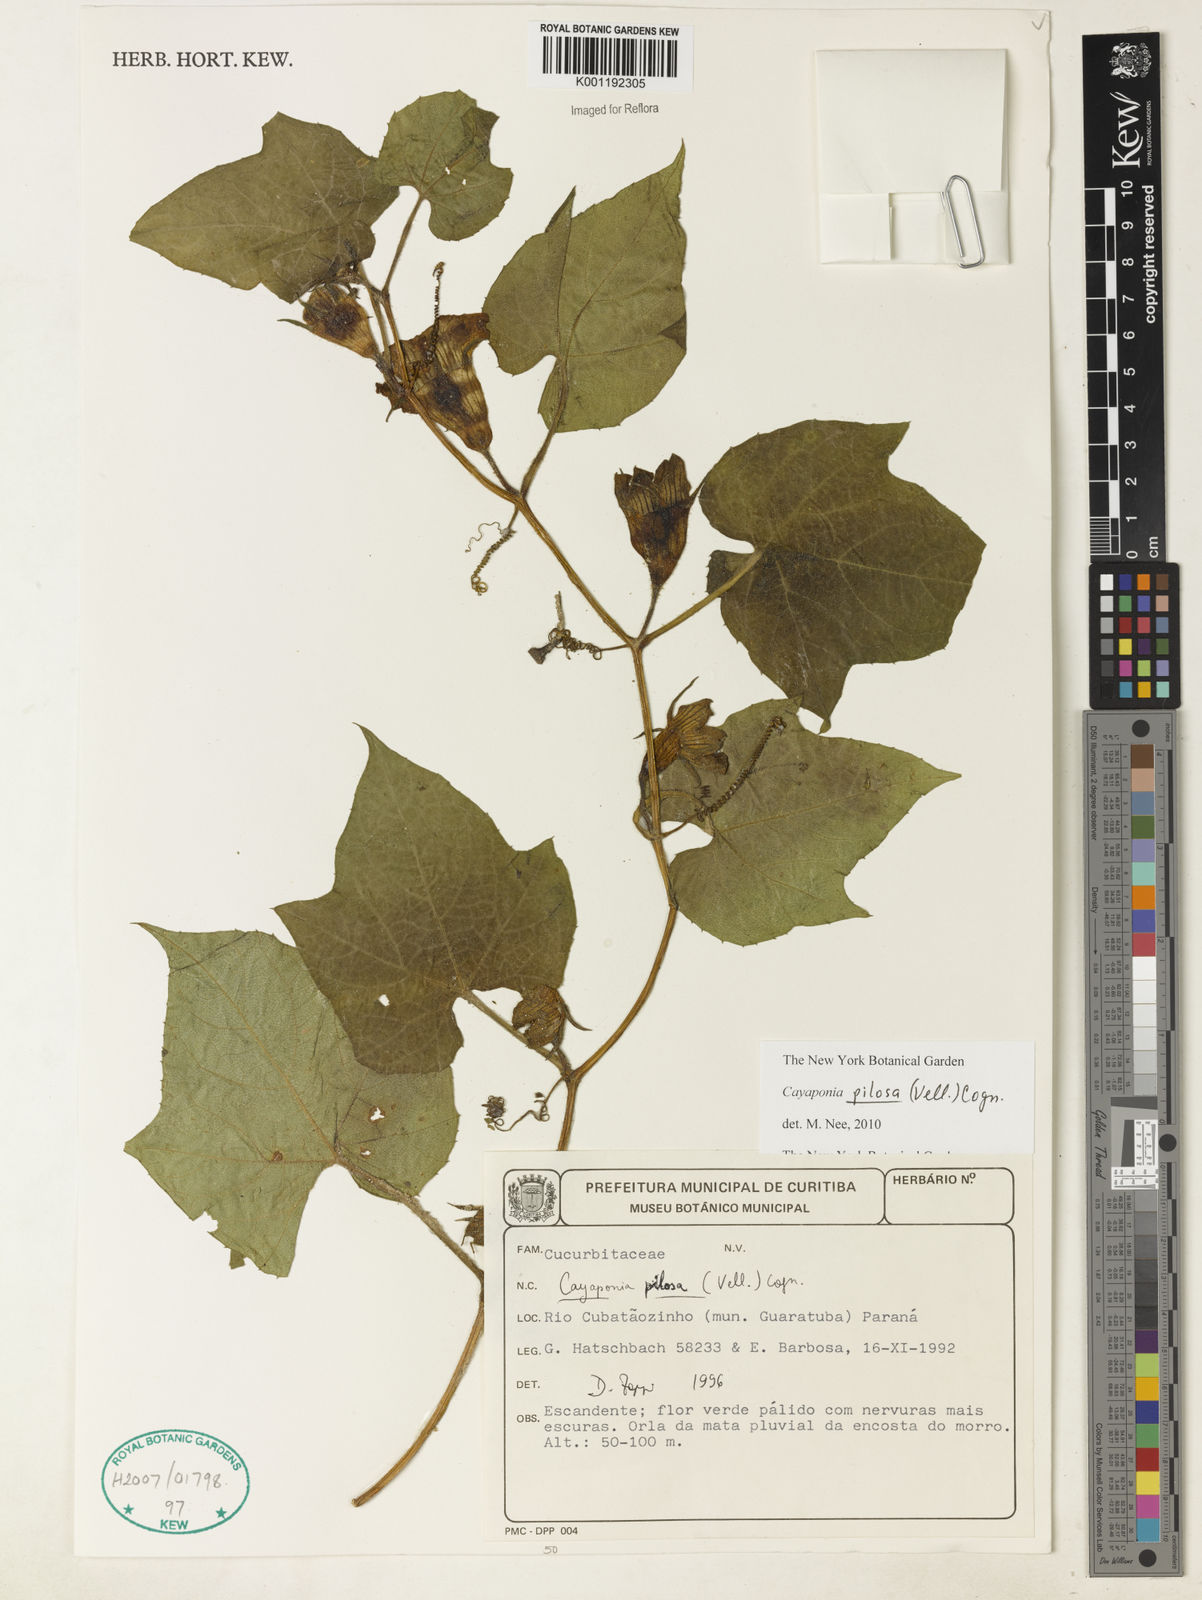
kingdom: Plantae
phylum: Tracheophyta
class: Magnoliopsida
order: Cucurbitales
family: Cucurbitaceae
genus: Cayaponia
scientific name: Cayaponia pilosa
